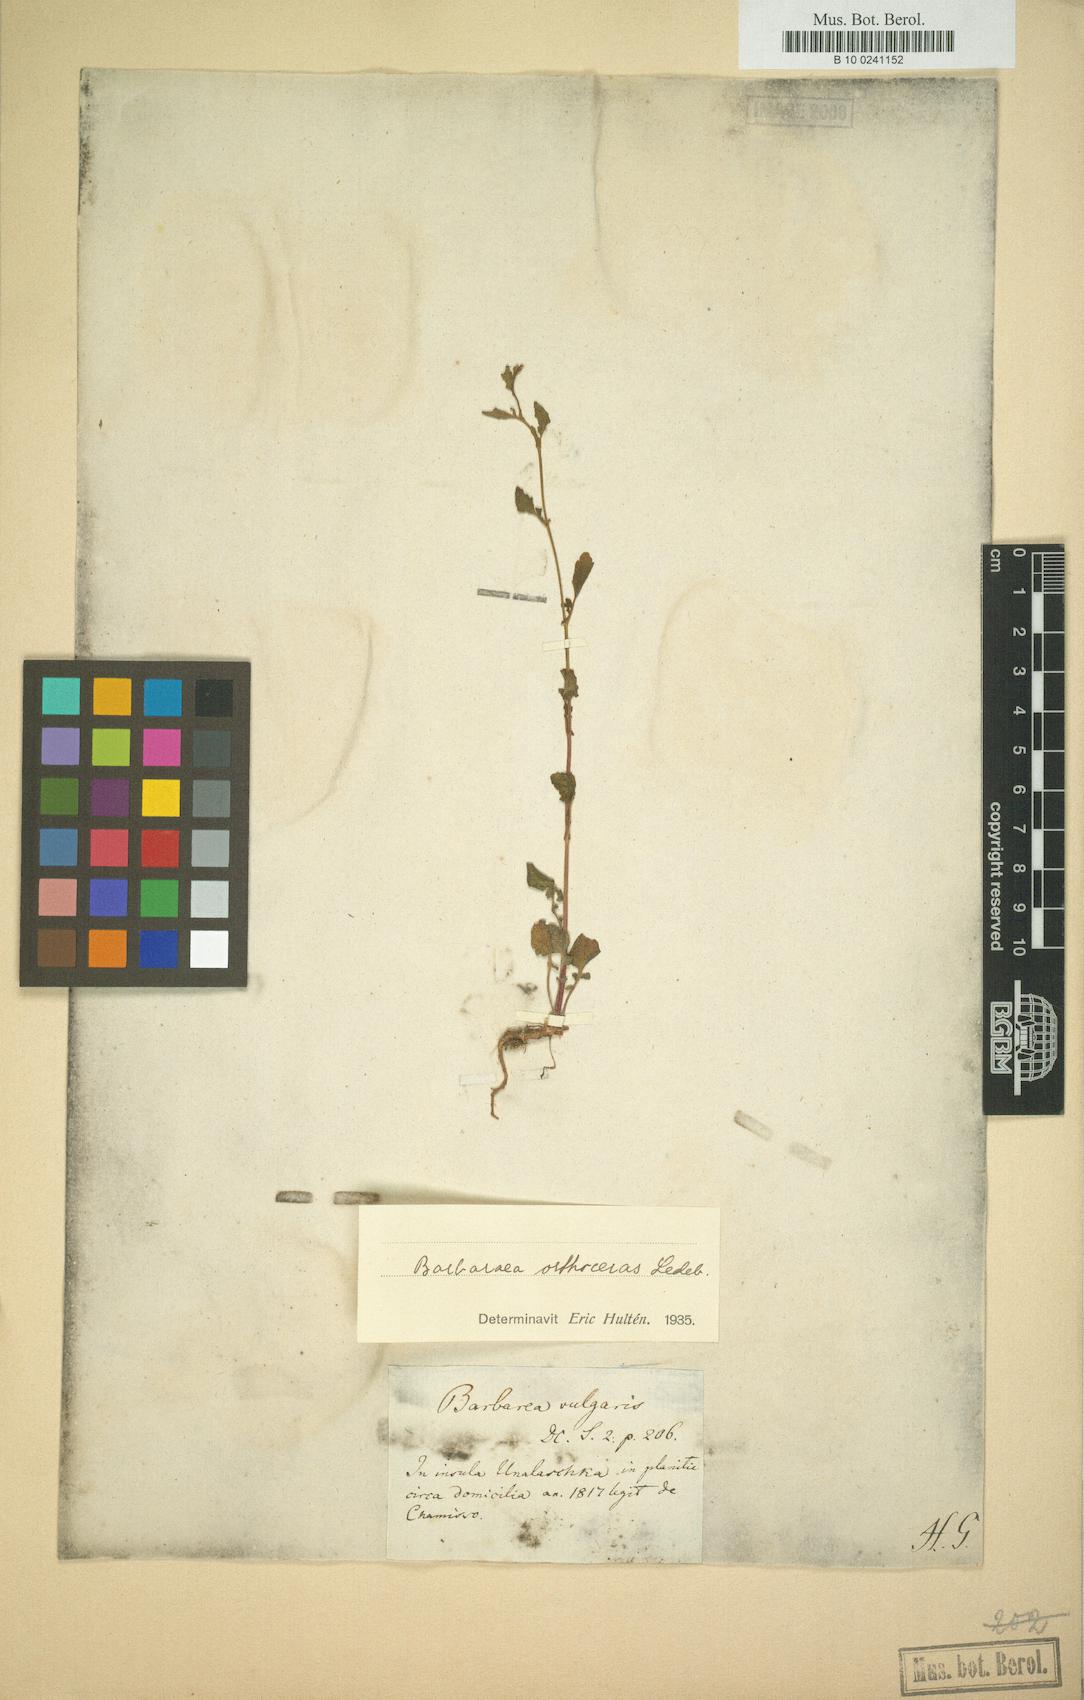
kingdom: Plantae
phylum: Tracheophyta
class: Magnoliopsida
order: Brassicales
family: Brassicaceae
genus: Barbarea
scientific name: Barbarea orthoceras
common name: American wintercress
